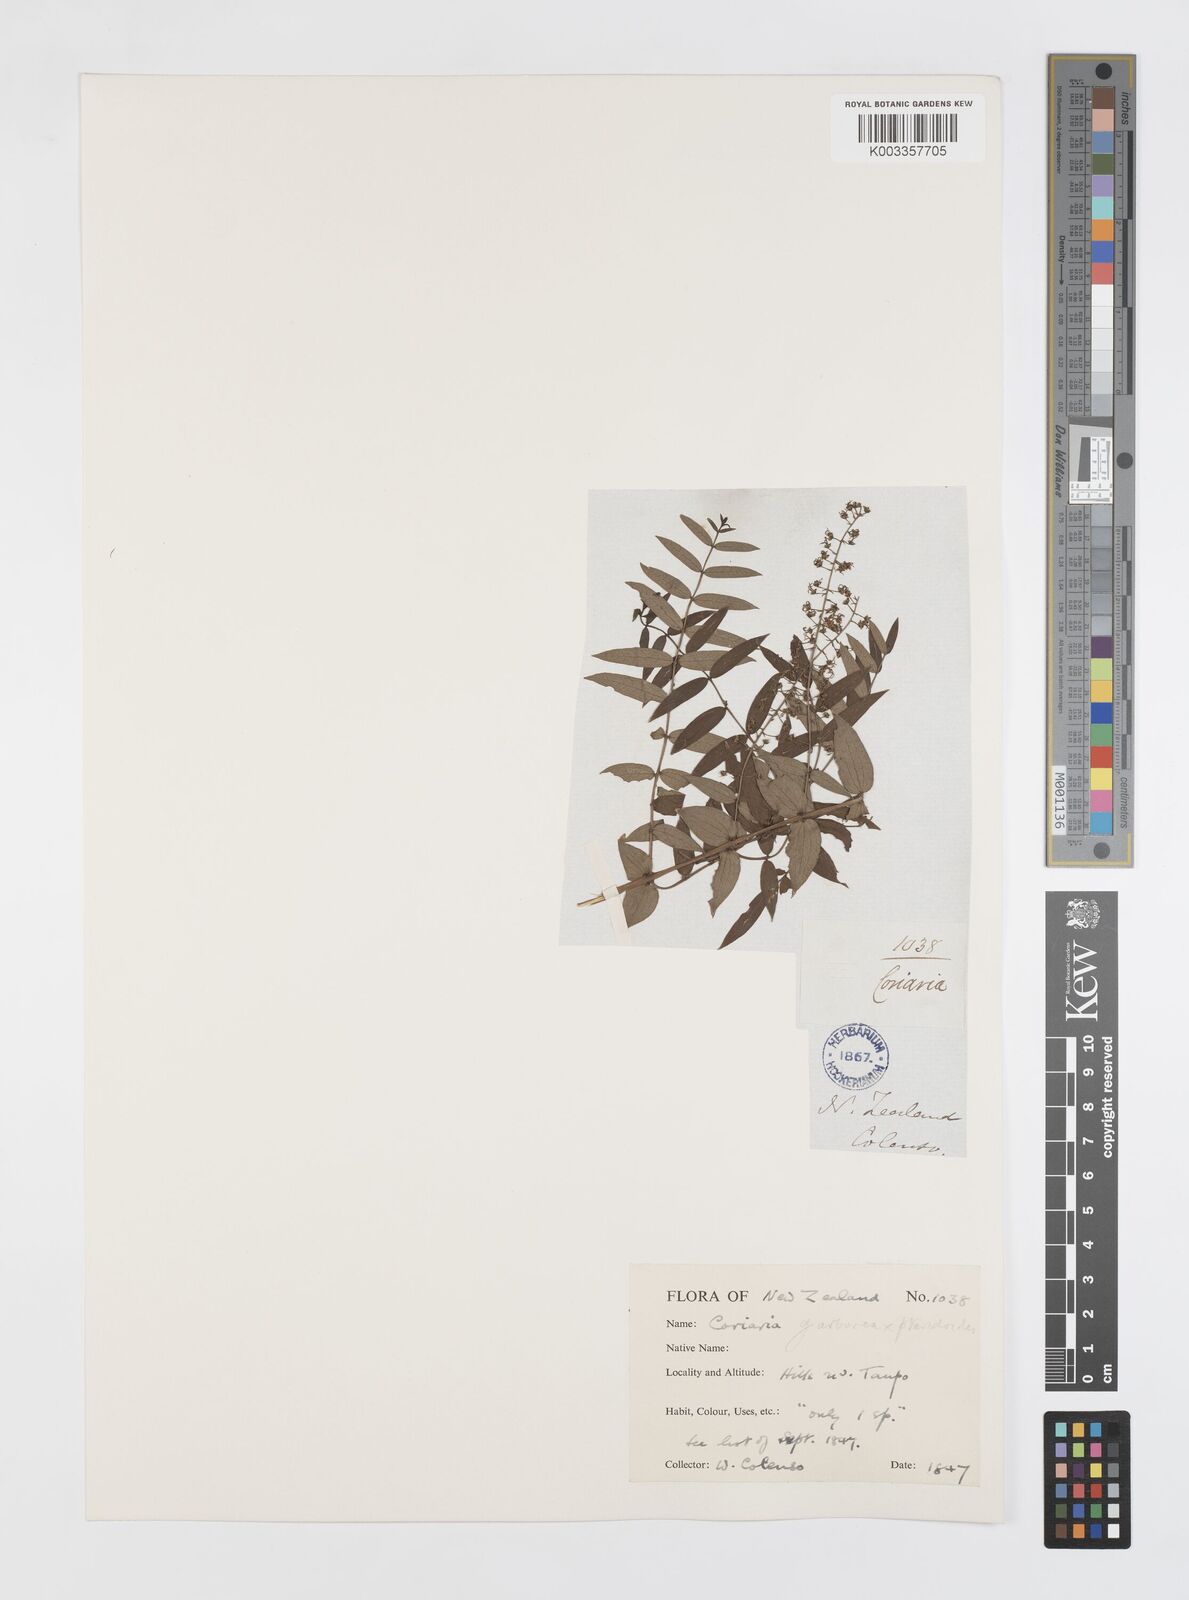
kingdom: Plantae
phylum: Tracheophyta
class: Magnoliopsida
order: Cucurbitales
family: Coriariaceae
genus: Coriaria
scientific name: Coriaria pteridoides
